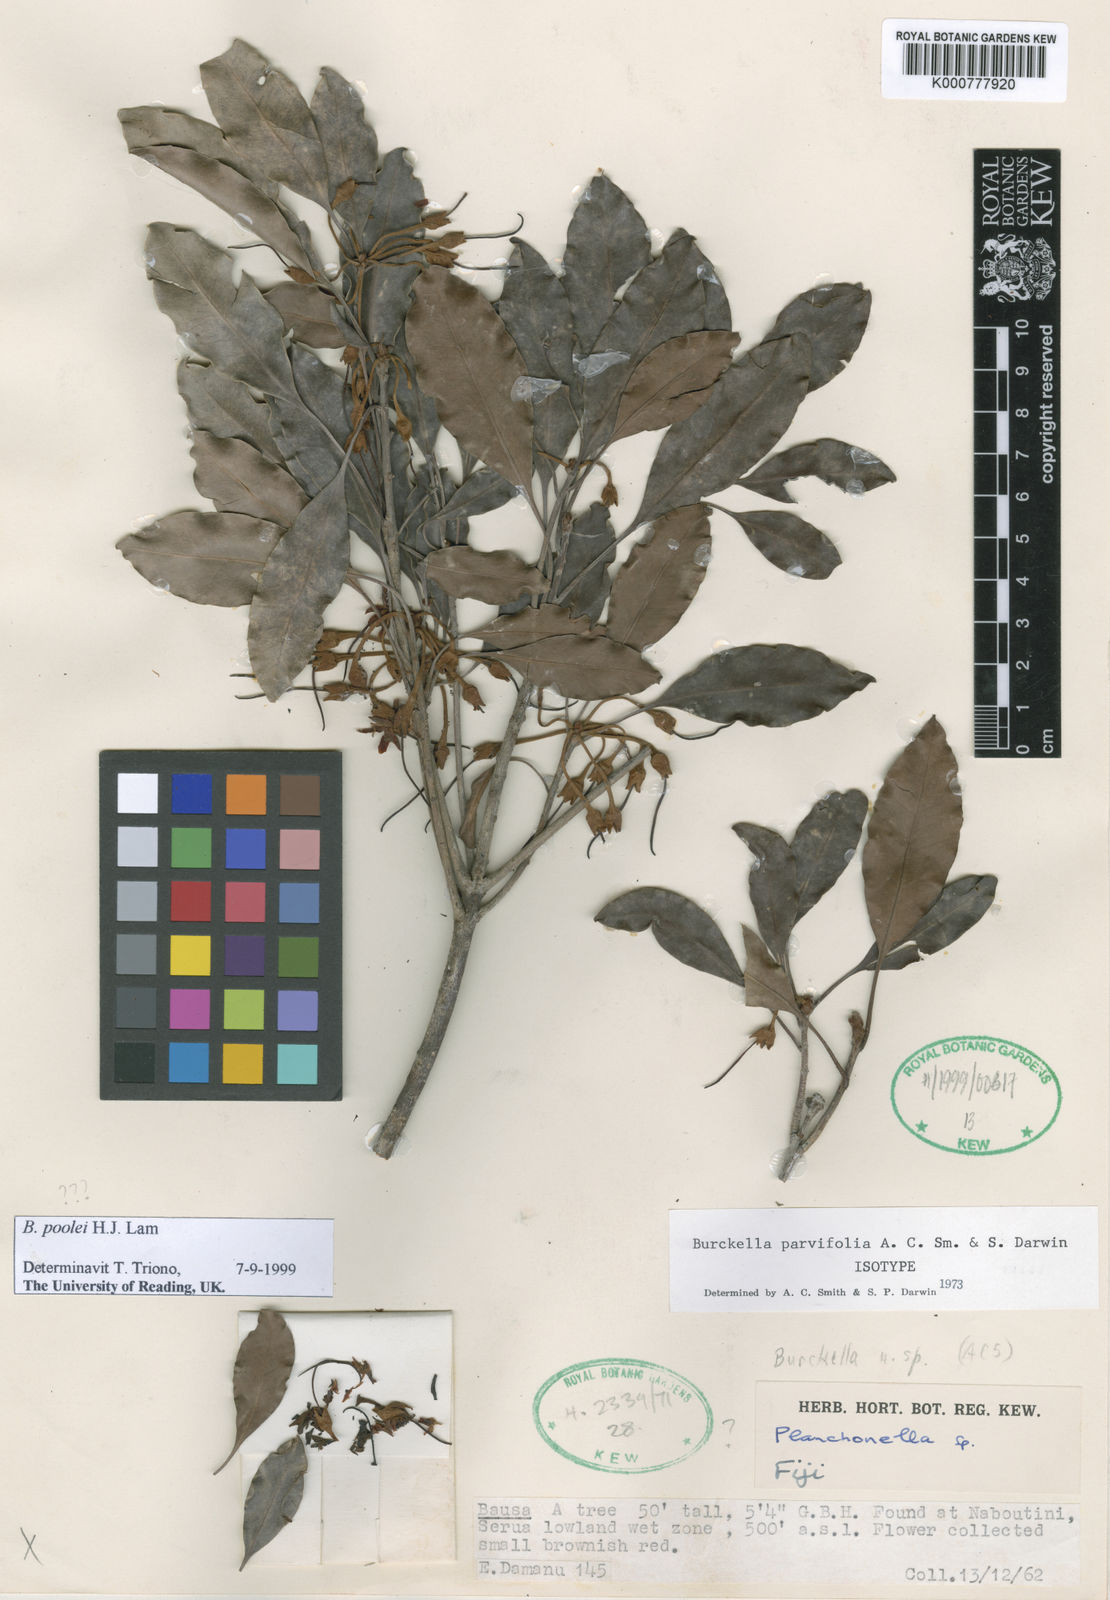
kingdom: Plantae
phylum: Tracheophyta
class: Magnoliopsida
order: Ericales
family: Sapotaceae
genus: Burckella
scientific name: Burckella poolei
